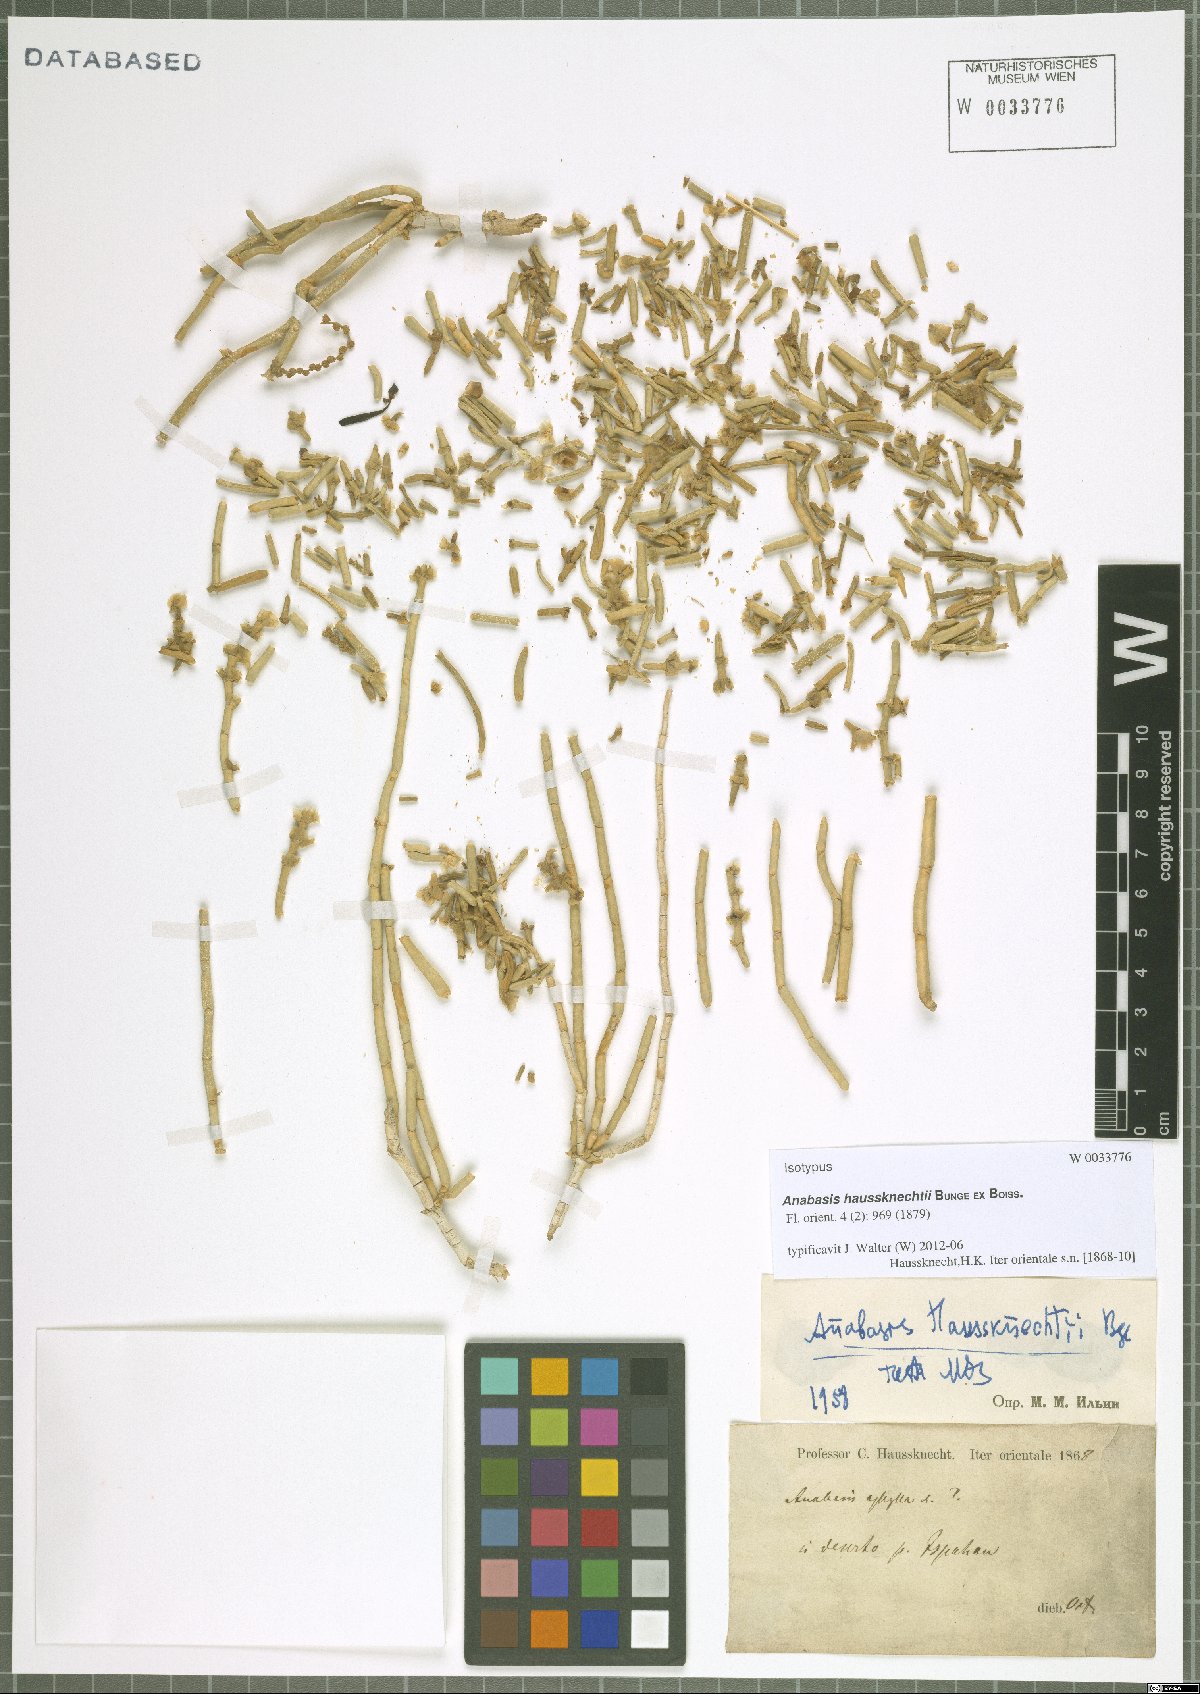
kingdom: Plantae
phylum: Tracheophyta
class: Magnoliopsida
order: Caryophyllales
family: Amaranthaceae
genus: Anabasis
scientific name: Anabasis haussknechtii
